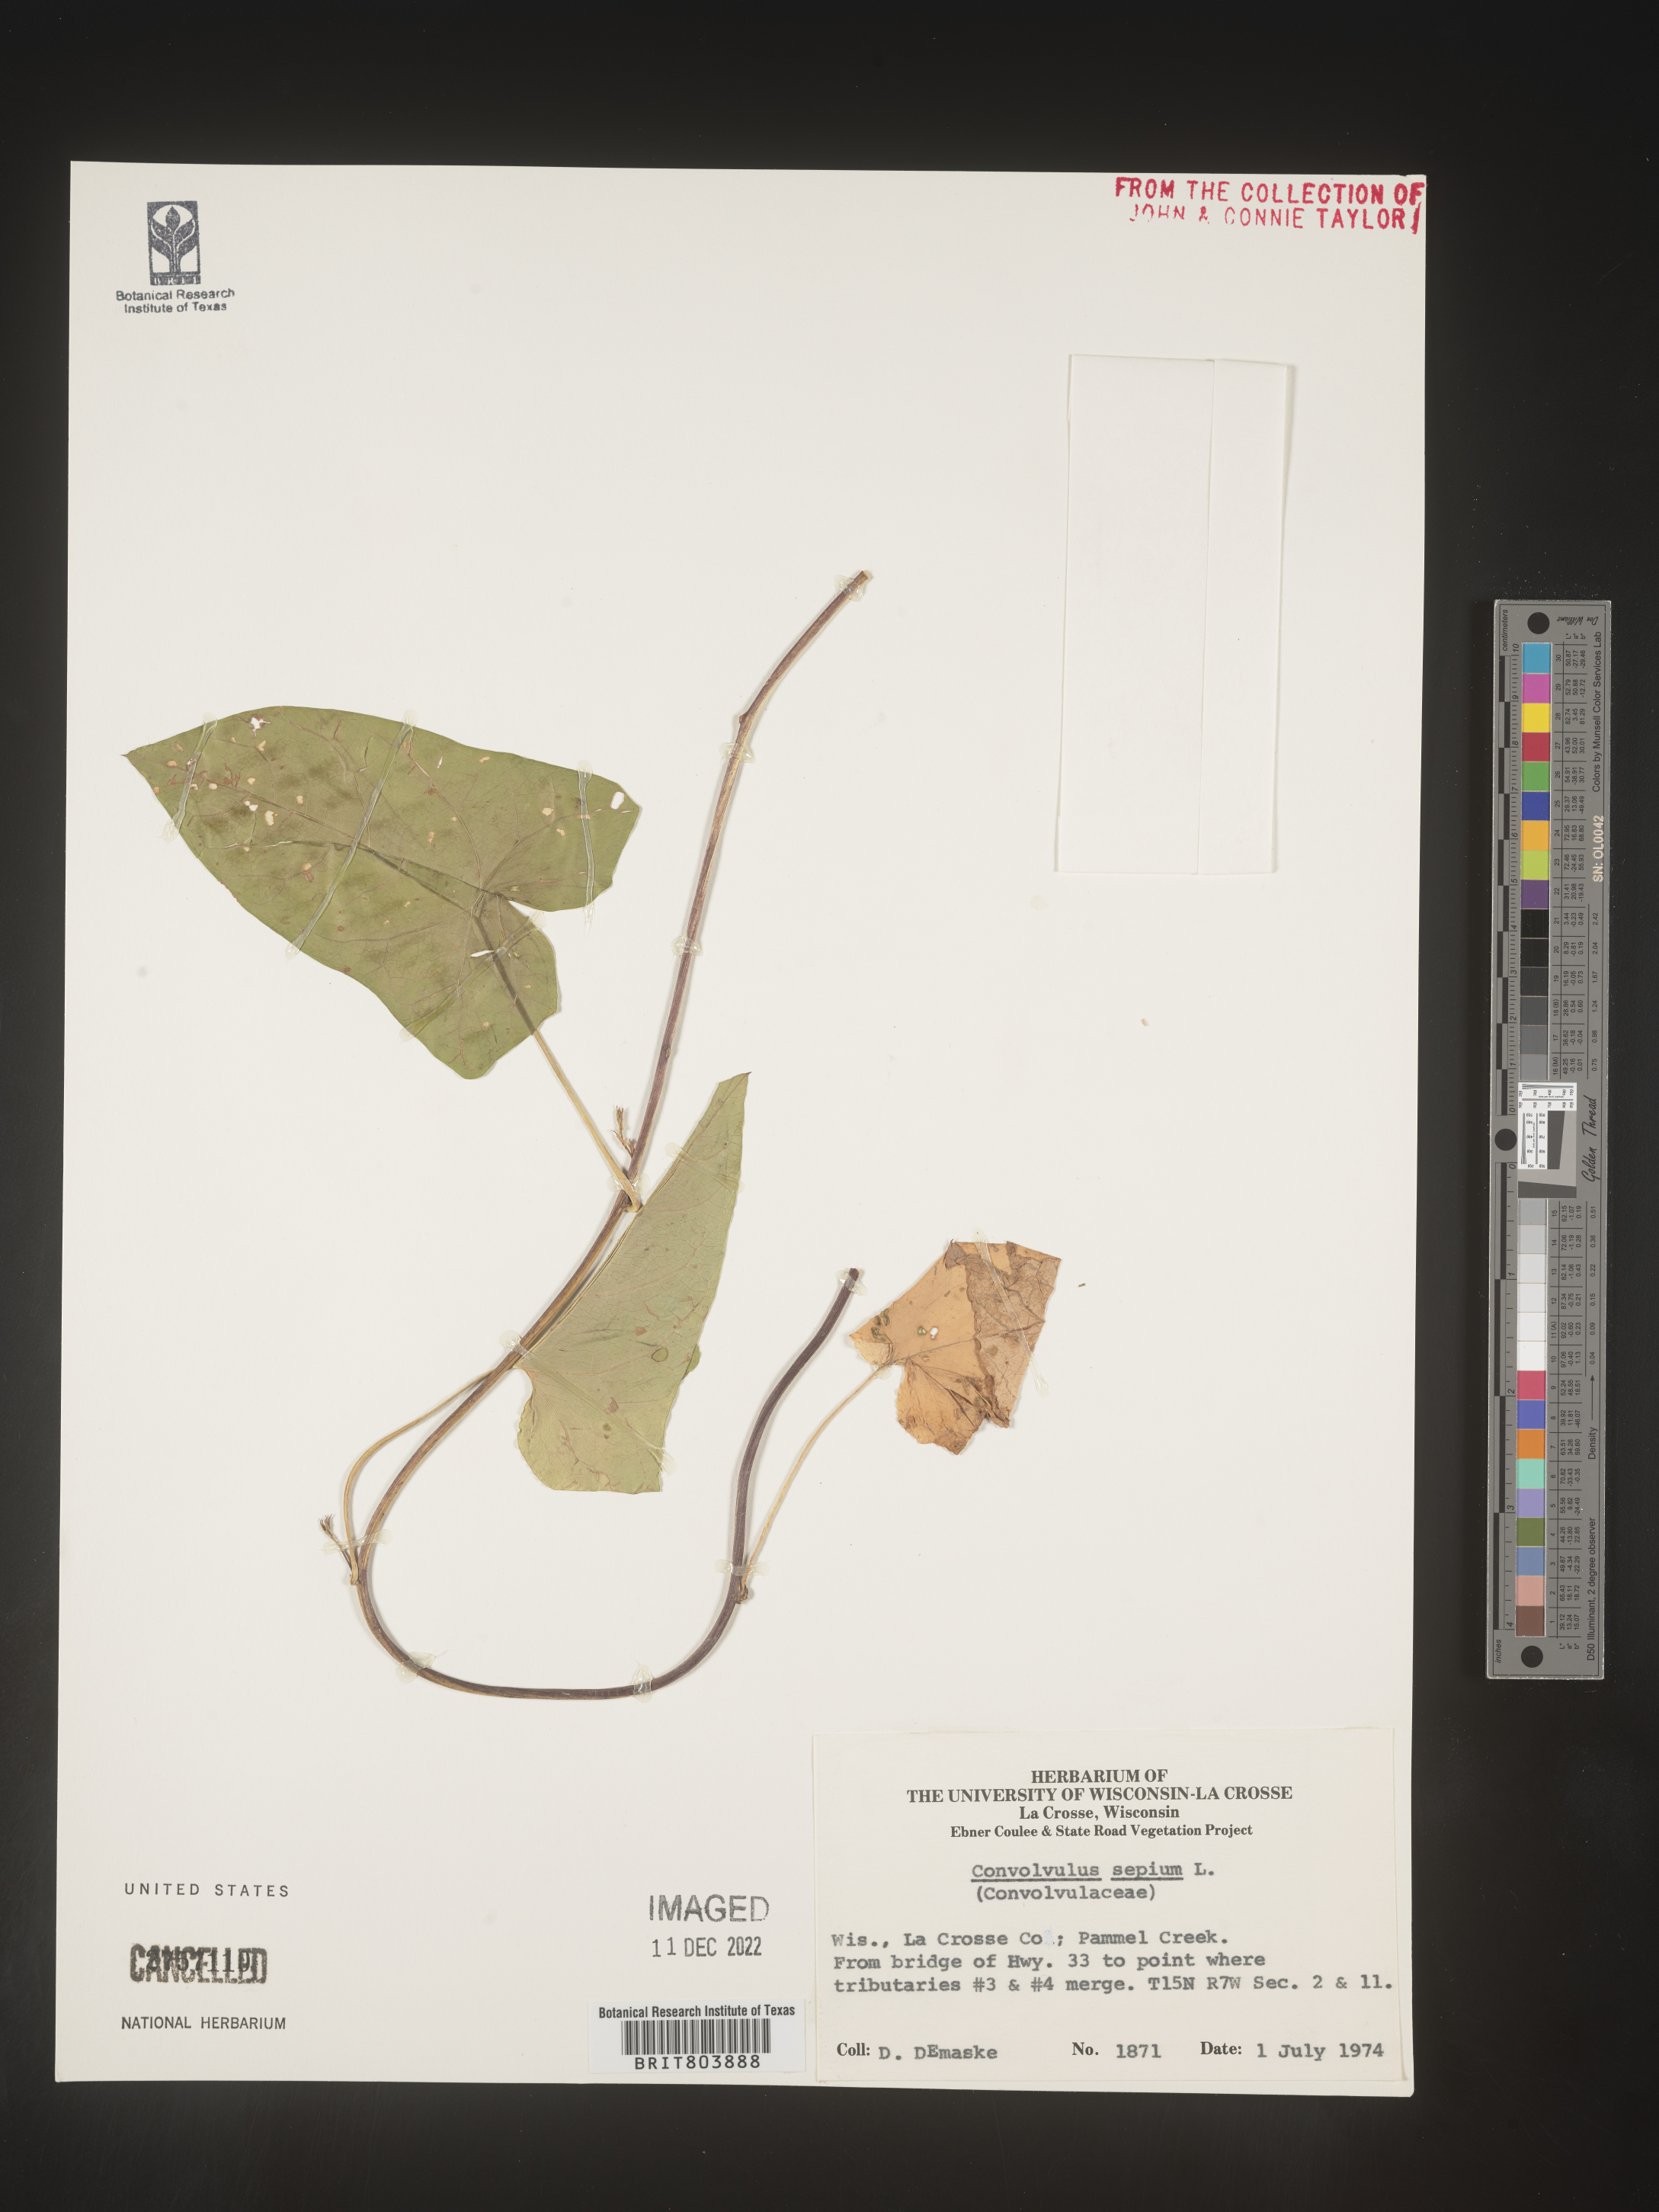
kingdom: Plantae
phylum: Tracheophyta
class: Magnoliopsida
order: Solanales
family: Convolvulaceae
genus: Calystegia
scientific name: Calystegia sepium
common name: Hedge bindweed
